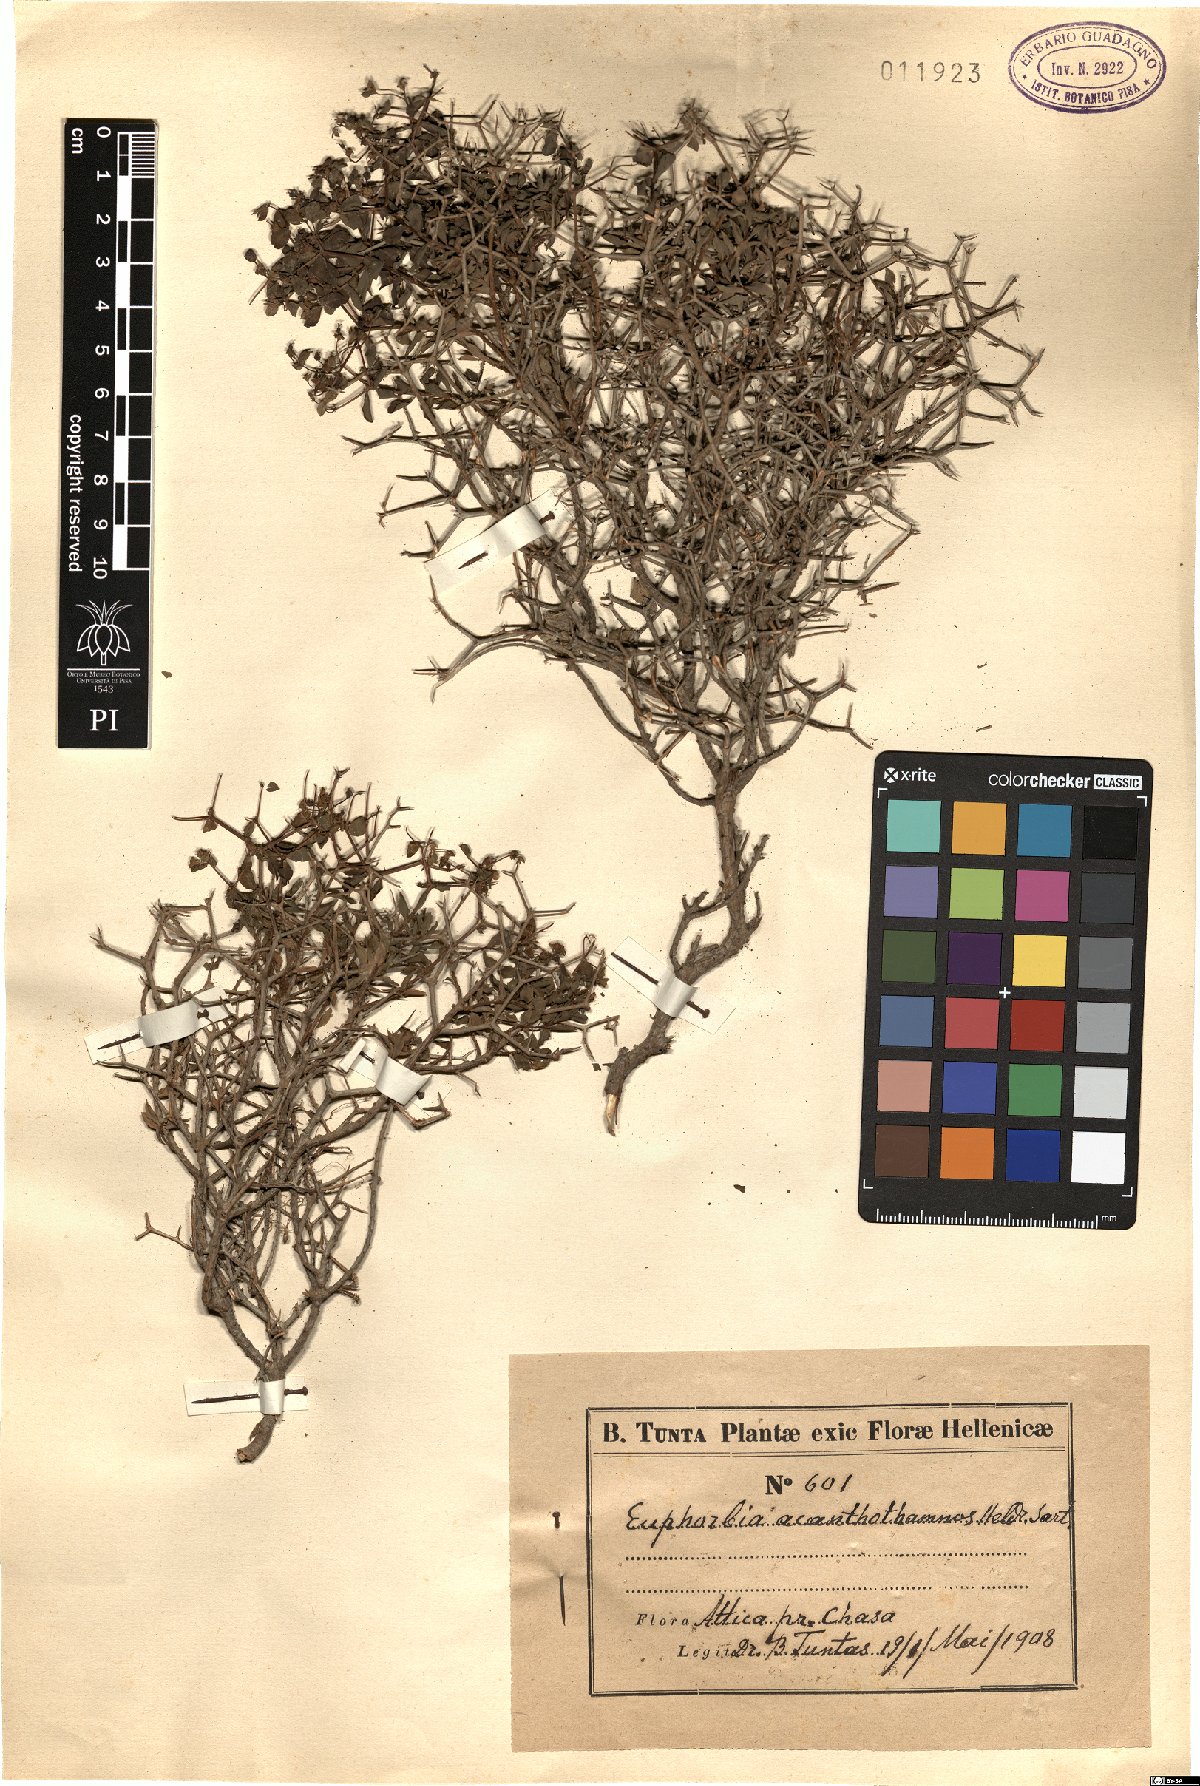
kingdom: Plantae
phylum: Tracheophyta
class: Magnoliopsida
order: Malpighiales
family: Euphorbiaceae
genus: Euphorbia
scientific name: Euphorbia acanthothamnos
